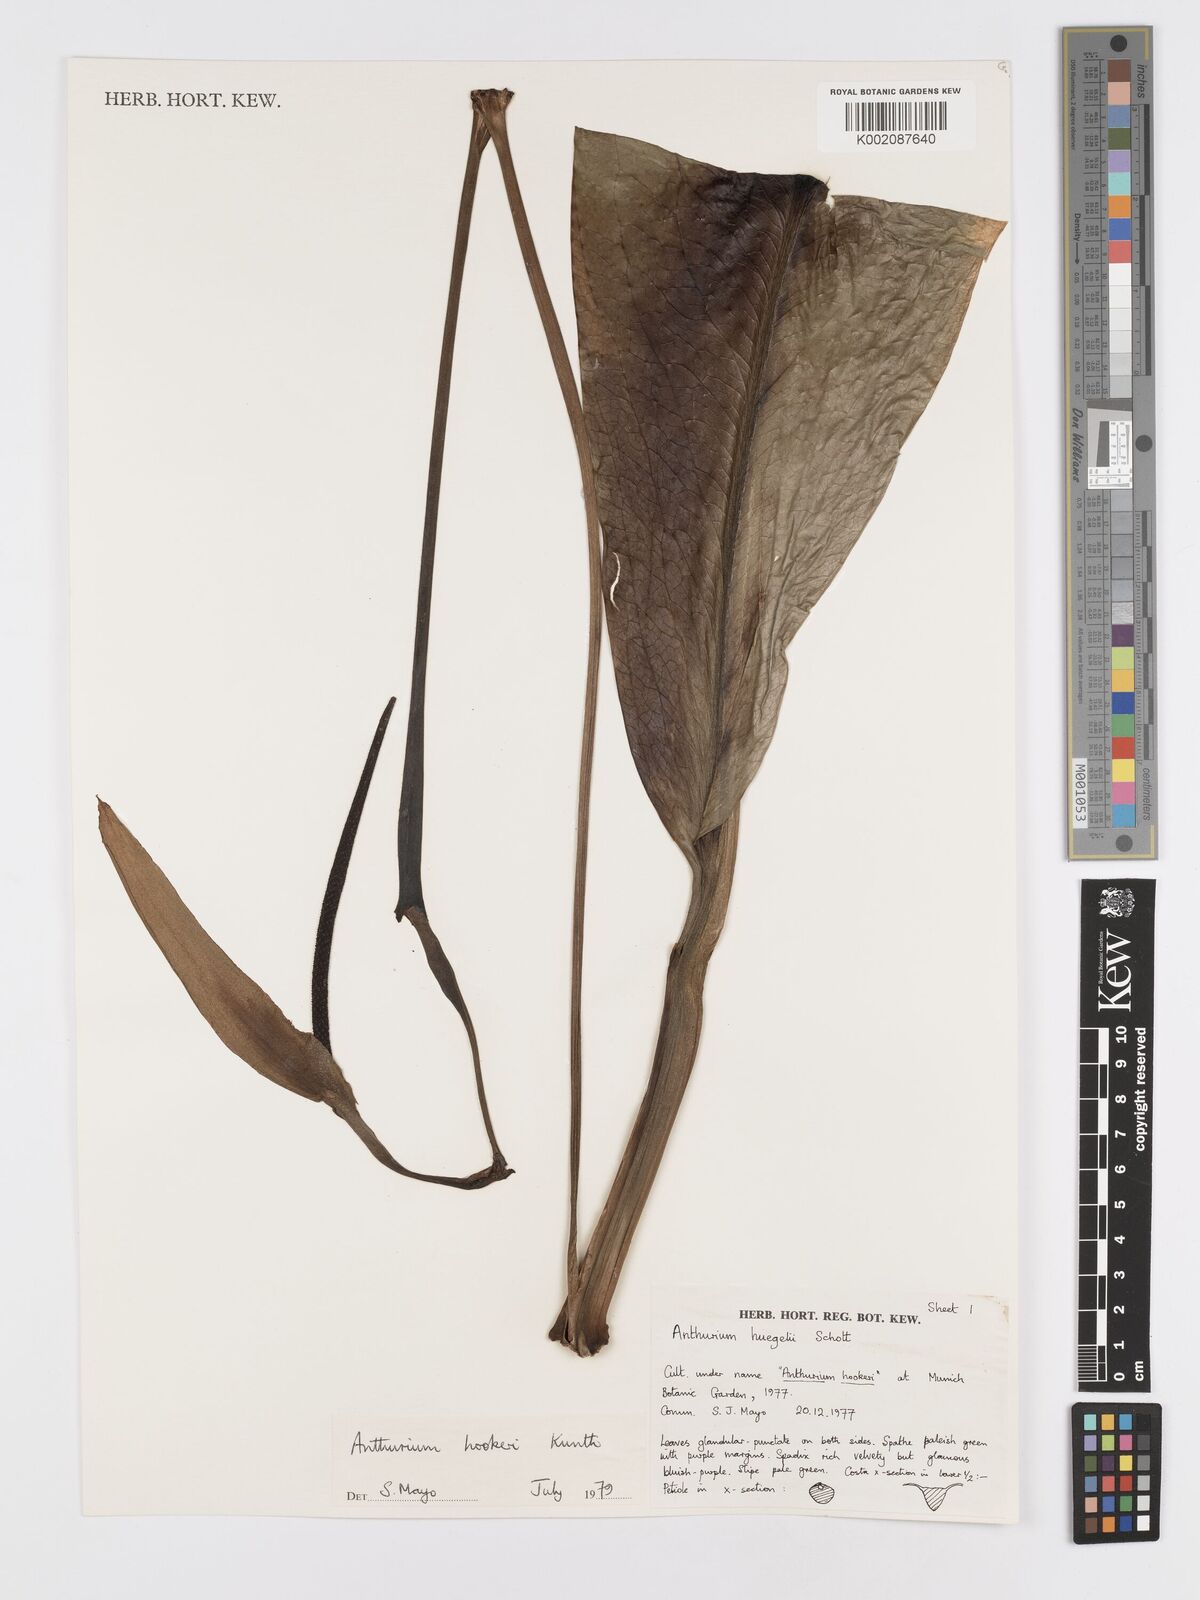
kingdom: Plantae
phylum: Tracheophyta
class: Liliopsida
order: Alismatales
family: Araceae
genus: Anthurium
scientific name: Anthurium hookeri
